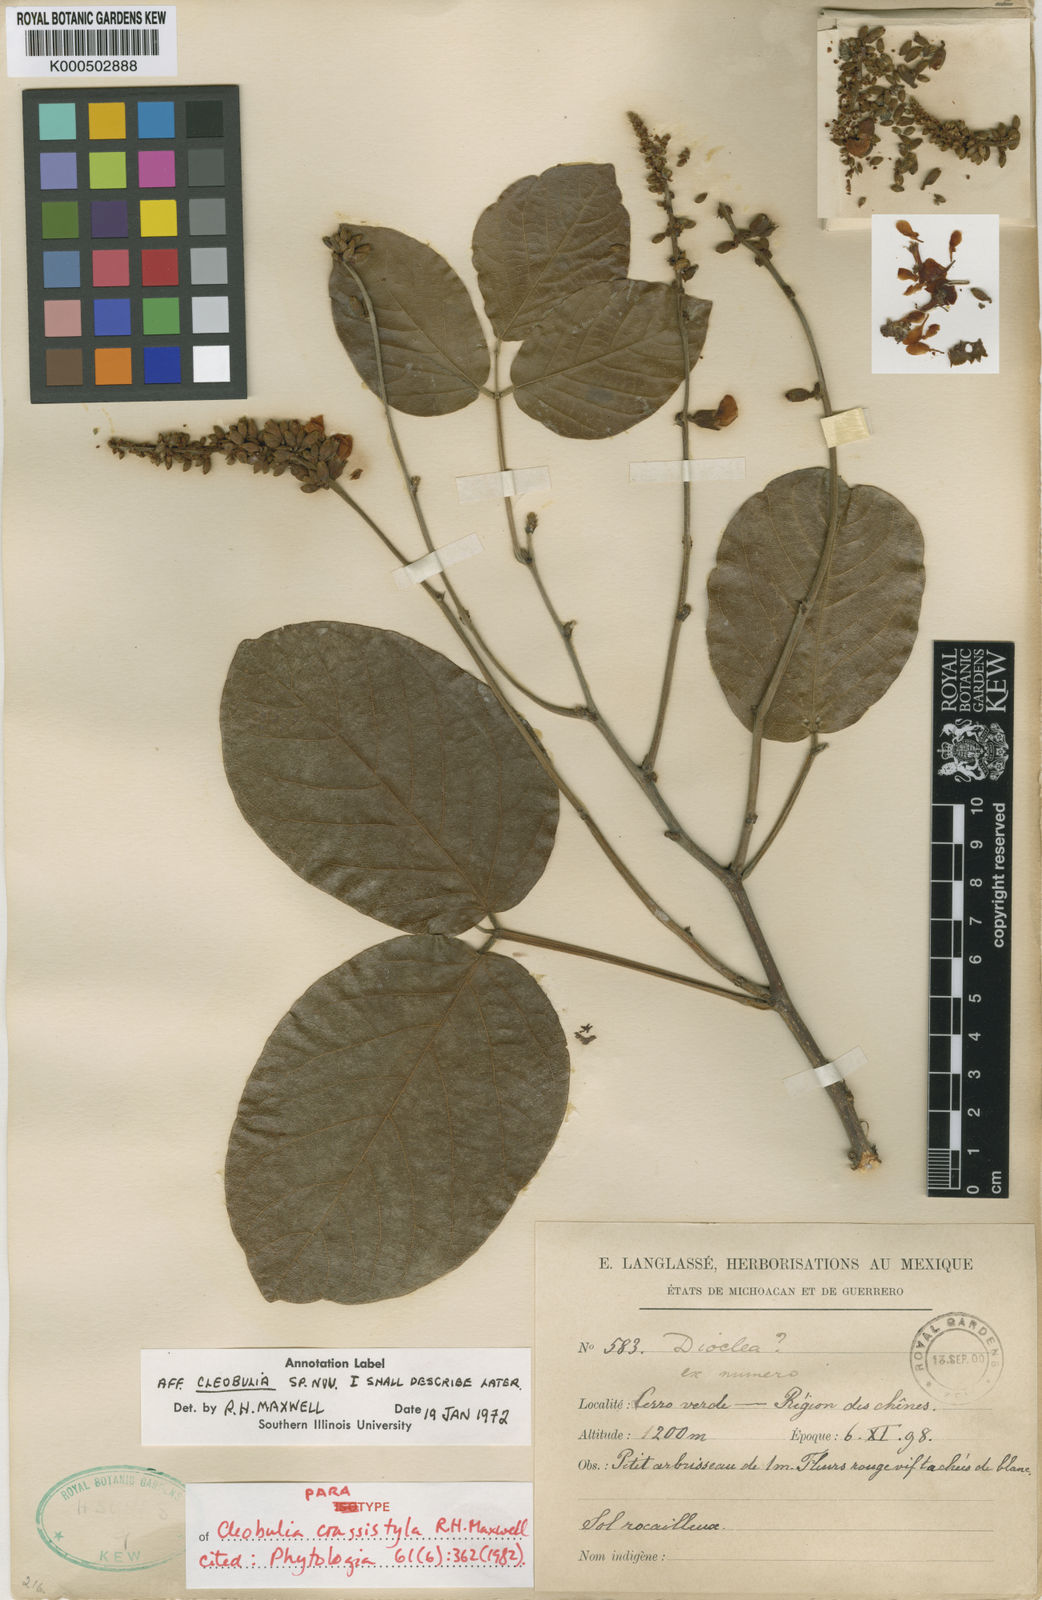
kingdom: Plantae
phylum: Tracheophyta
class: Magnoliopsida
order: Fabales
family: Fabaceae
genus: Cleobulia
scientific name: Cleobulia crassistyla
